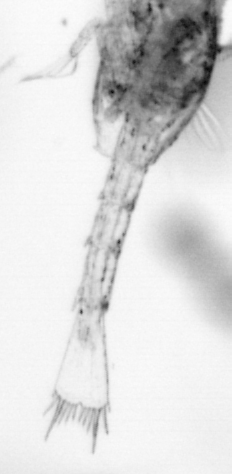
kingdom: Animalia
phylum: Arthropoda
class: Copepoda
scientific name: Copepoda
